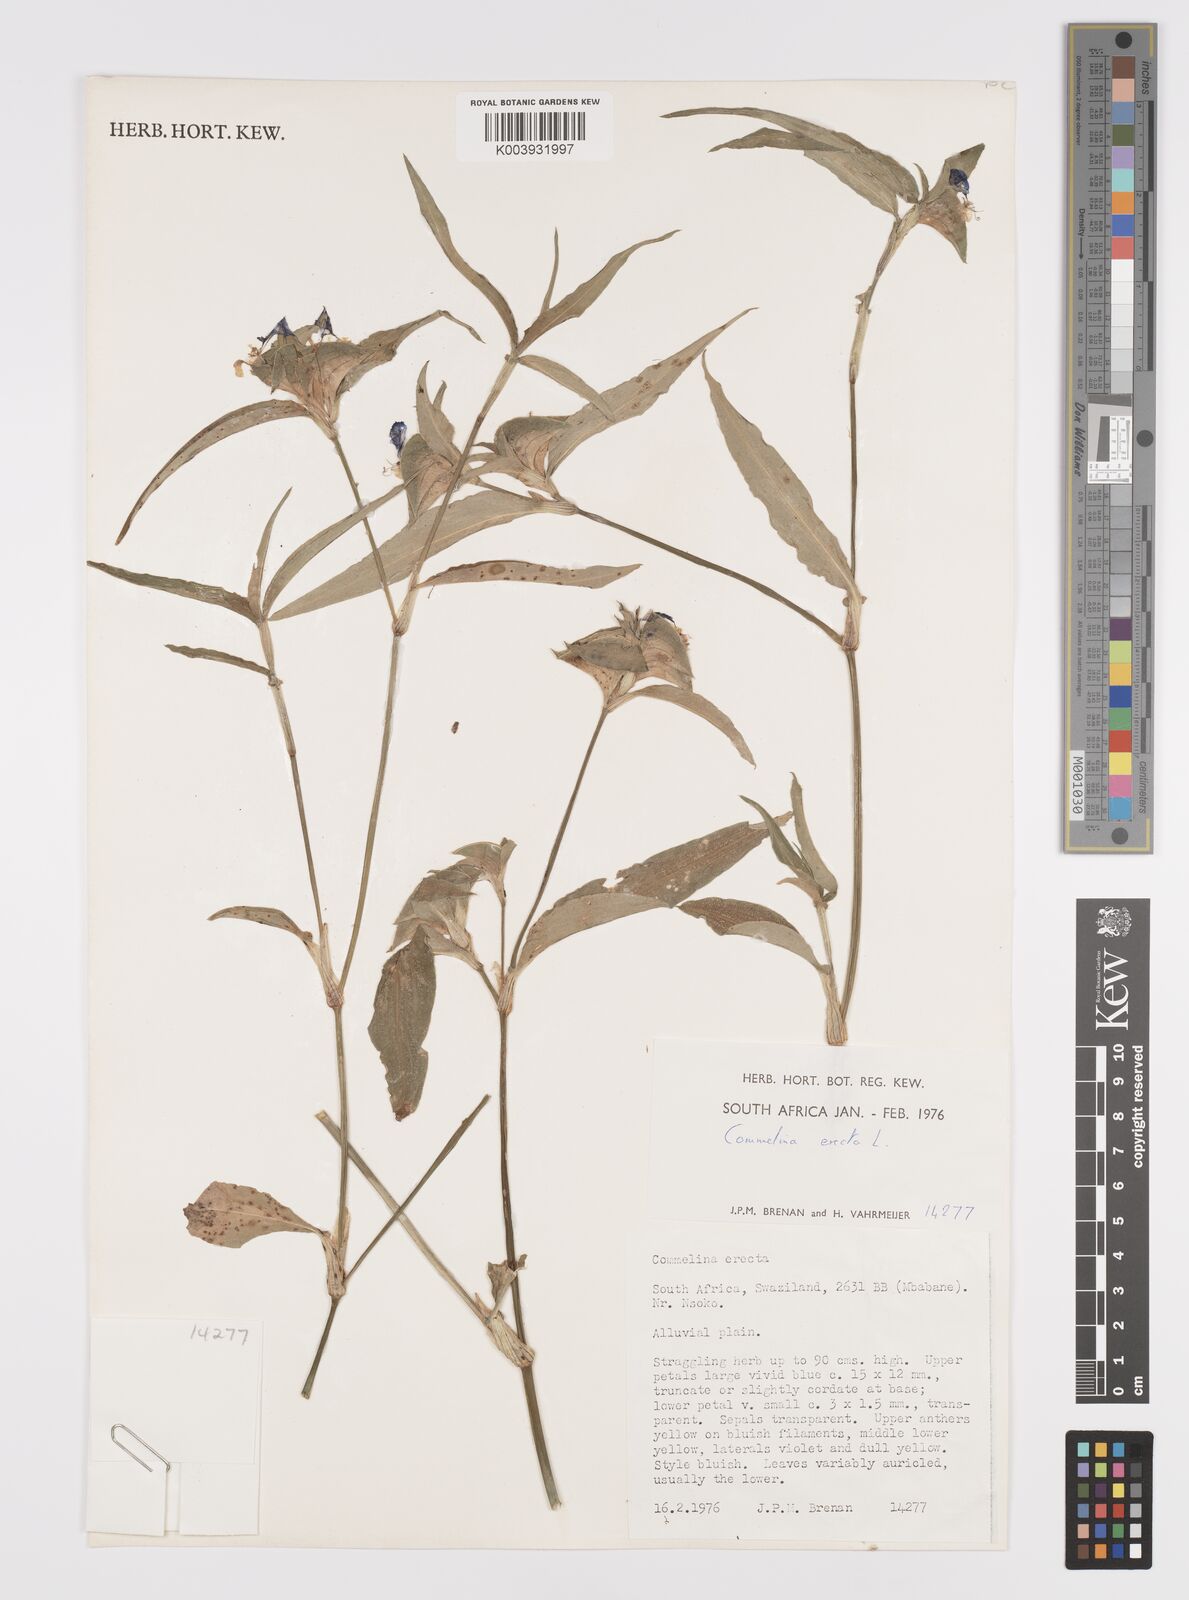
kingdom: Plantae
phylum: Tracheophyta
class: Liliopsida
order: Commelinales
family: Commelinaceae
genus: Commelina
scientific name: Commelina erecta
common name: Blousel blommetjie
